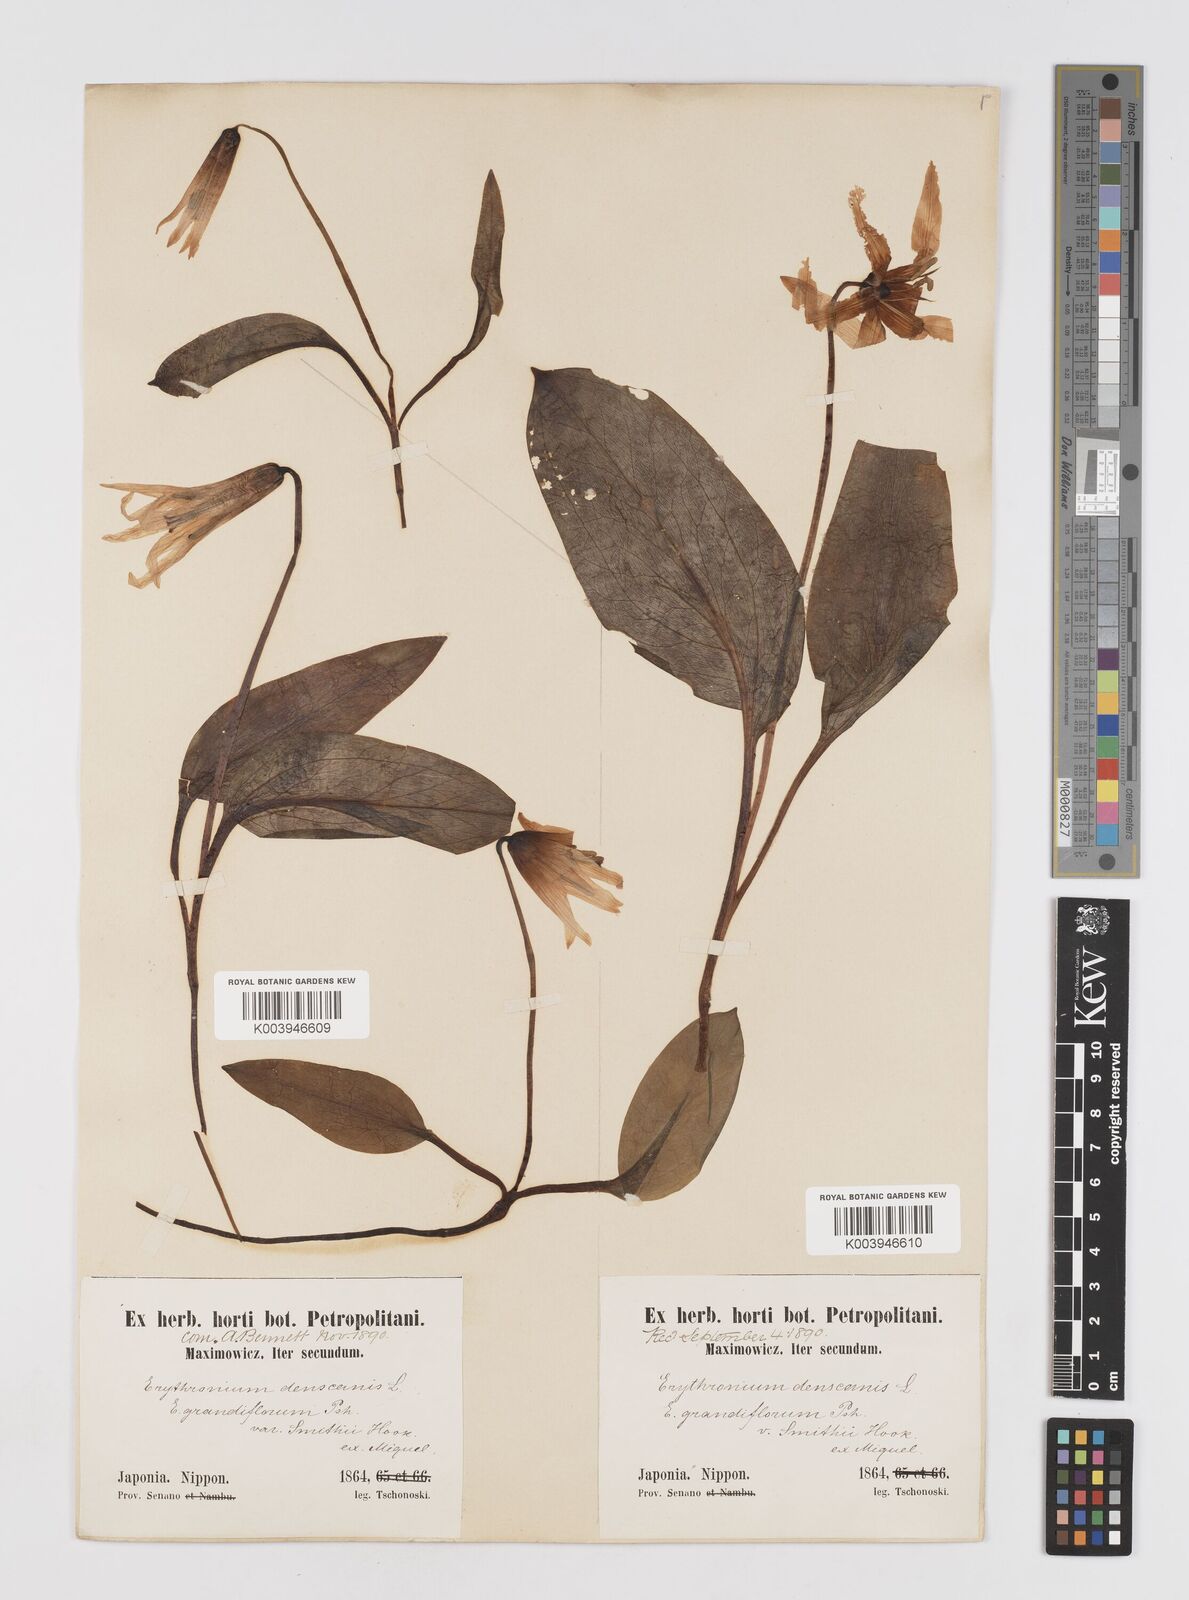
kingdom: Plantae
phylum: Tracheophyta
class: Liliopsida
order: Liliales
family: Liliaceae
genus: Erythronium
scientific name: Erythronium japonicum
